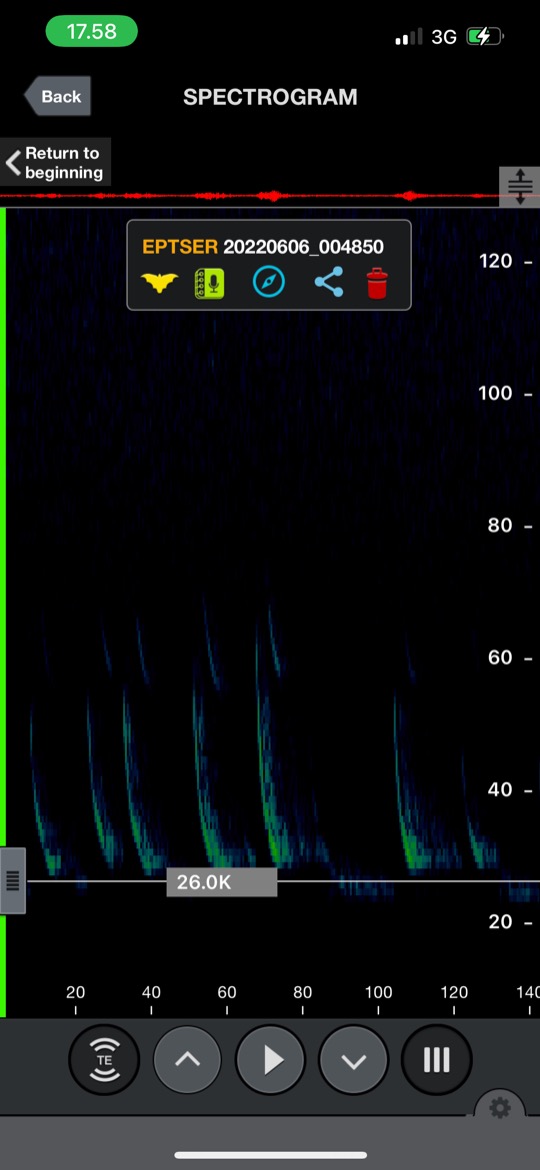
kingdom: Animalia
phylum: Chordata
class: Mammalia
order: Chiroptera
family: Vespertilionidae
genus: Eptesicus
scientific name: Eptesicus serotinus
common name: Sydflagermus
